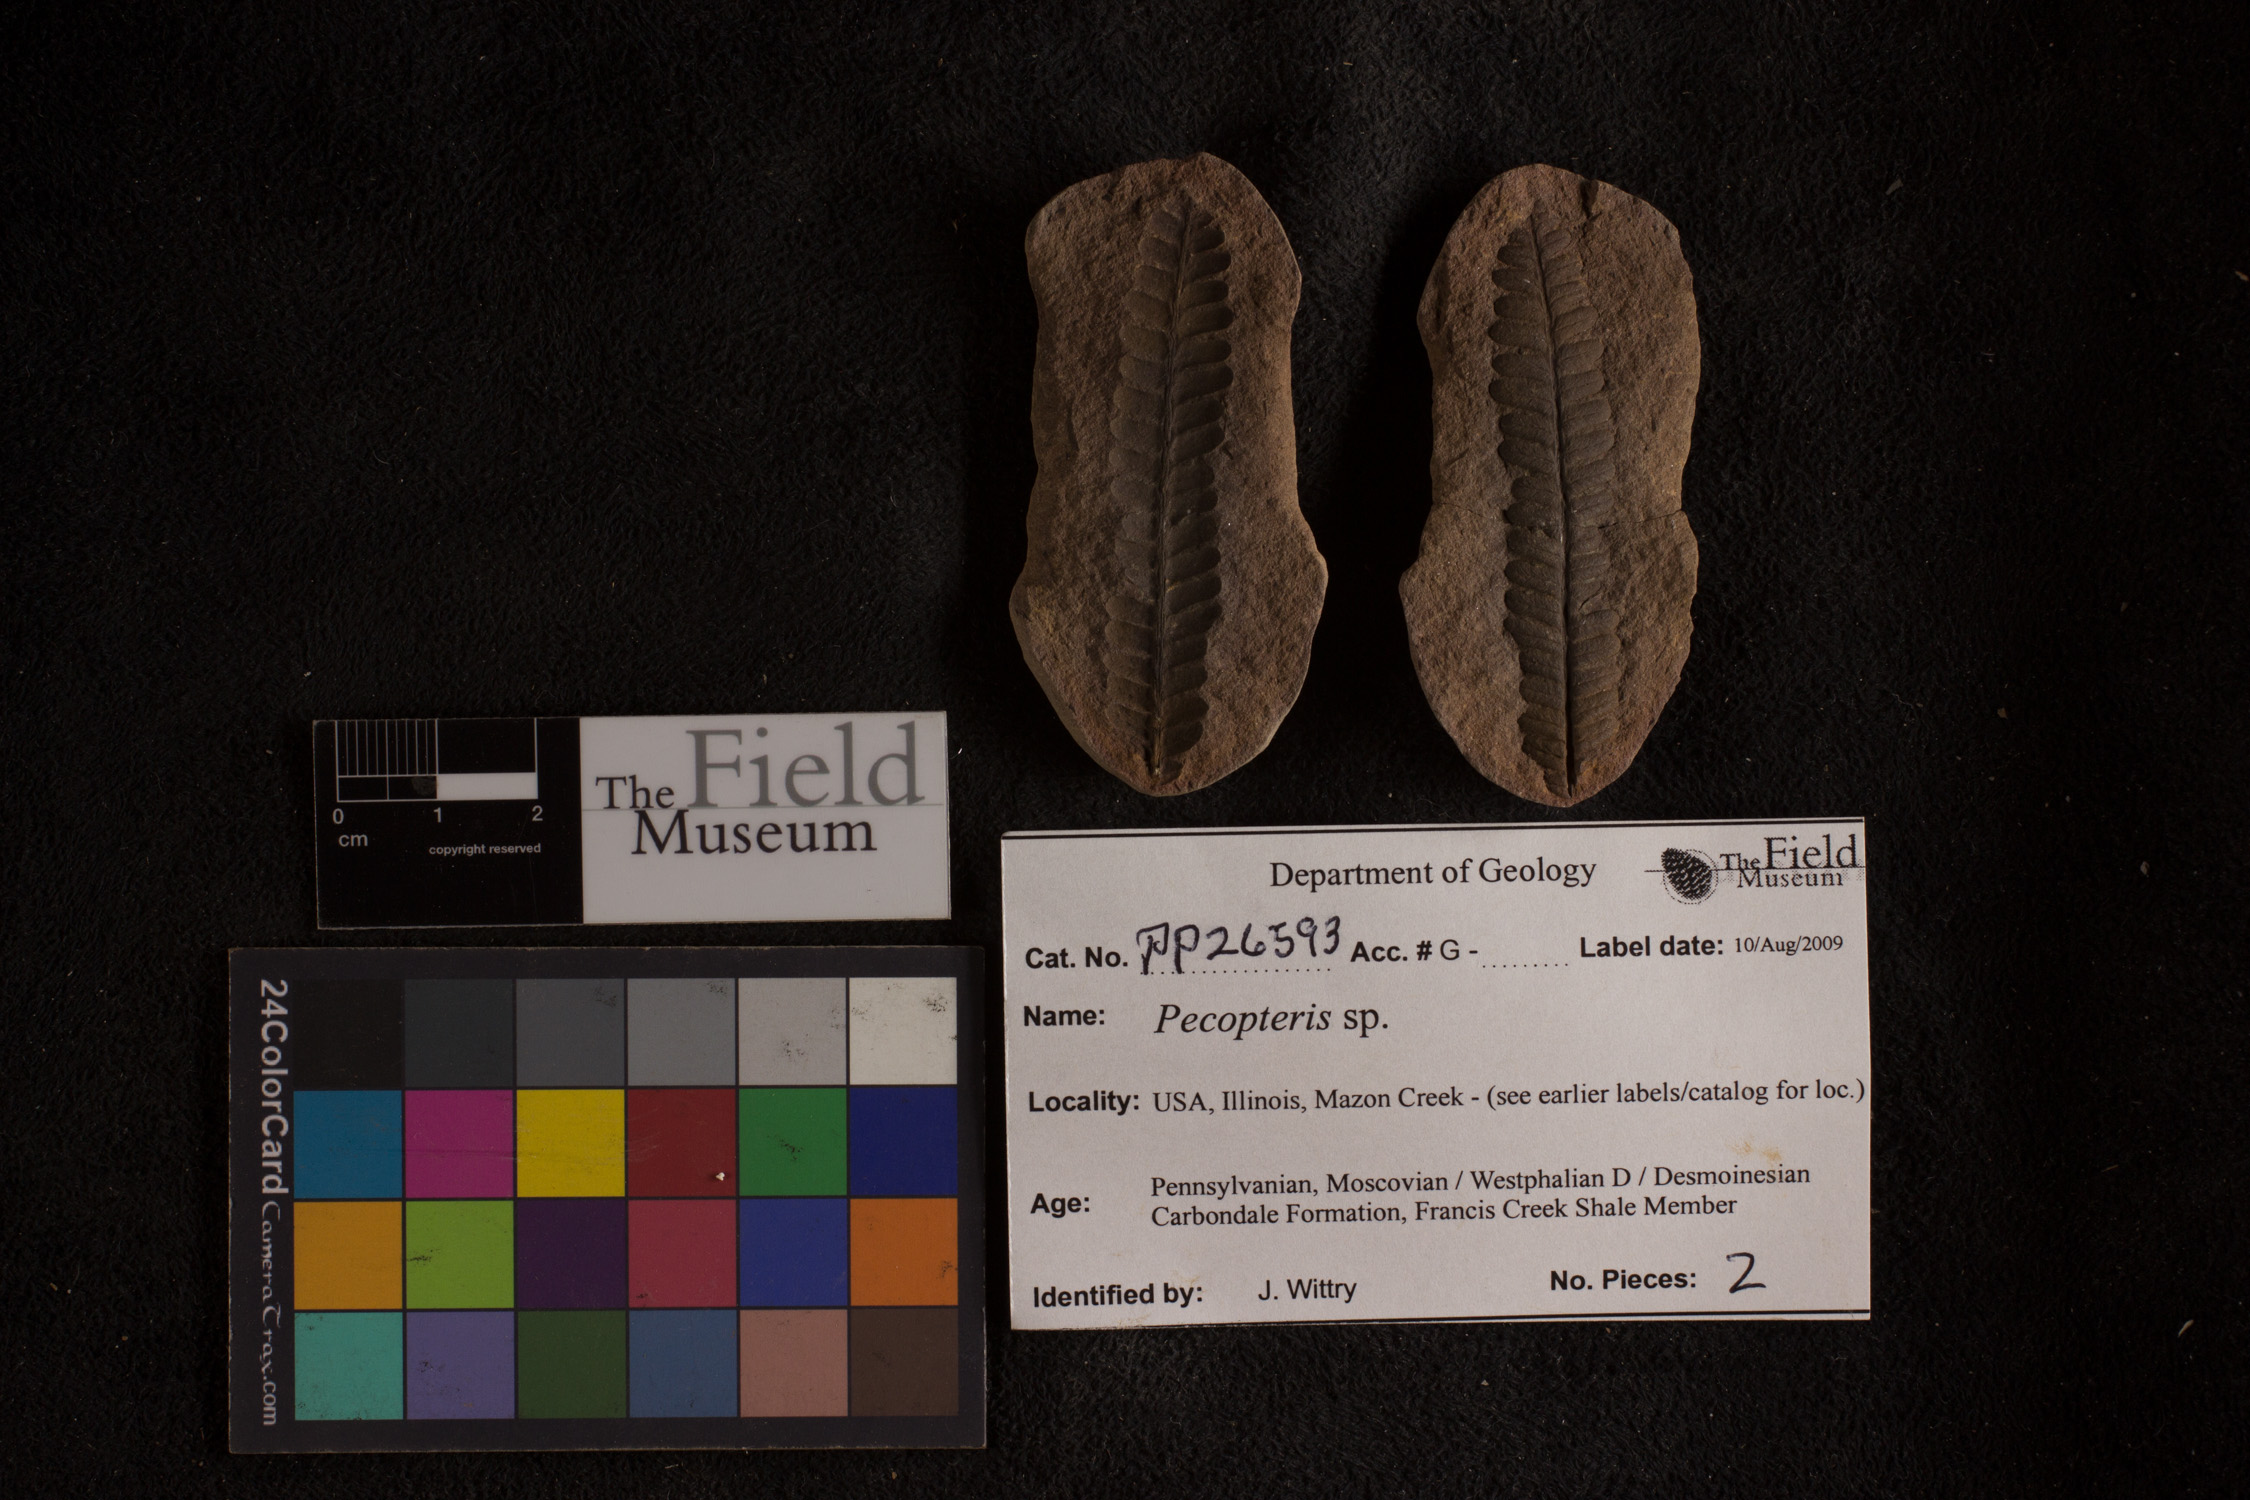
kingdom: Plantae
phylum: Tracheophyta
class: Polypodiopsida
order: Marattiales
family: Asterothecaceae
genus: Pecopteris
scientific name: Pecopteris
